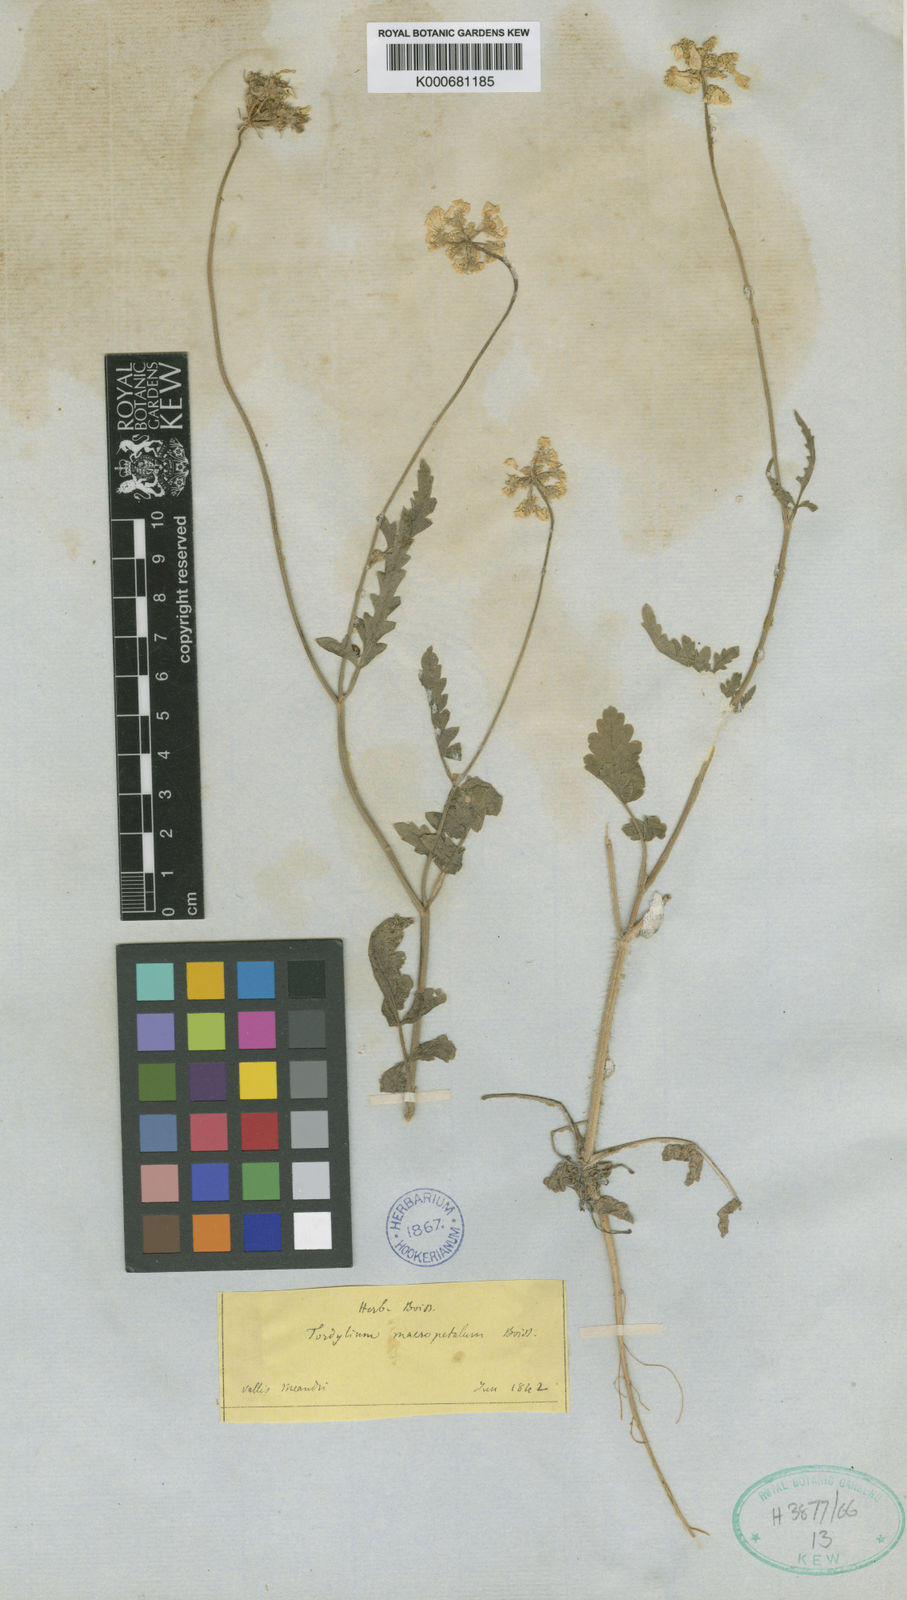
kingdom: Plantae
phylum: Tracheophyta
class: Magnoliopsida
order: Apiales
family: Apiaceae
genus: Tordylium
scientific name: Tordylium macropetalum
